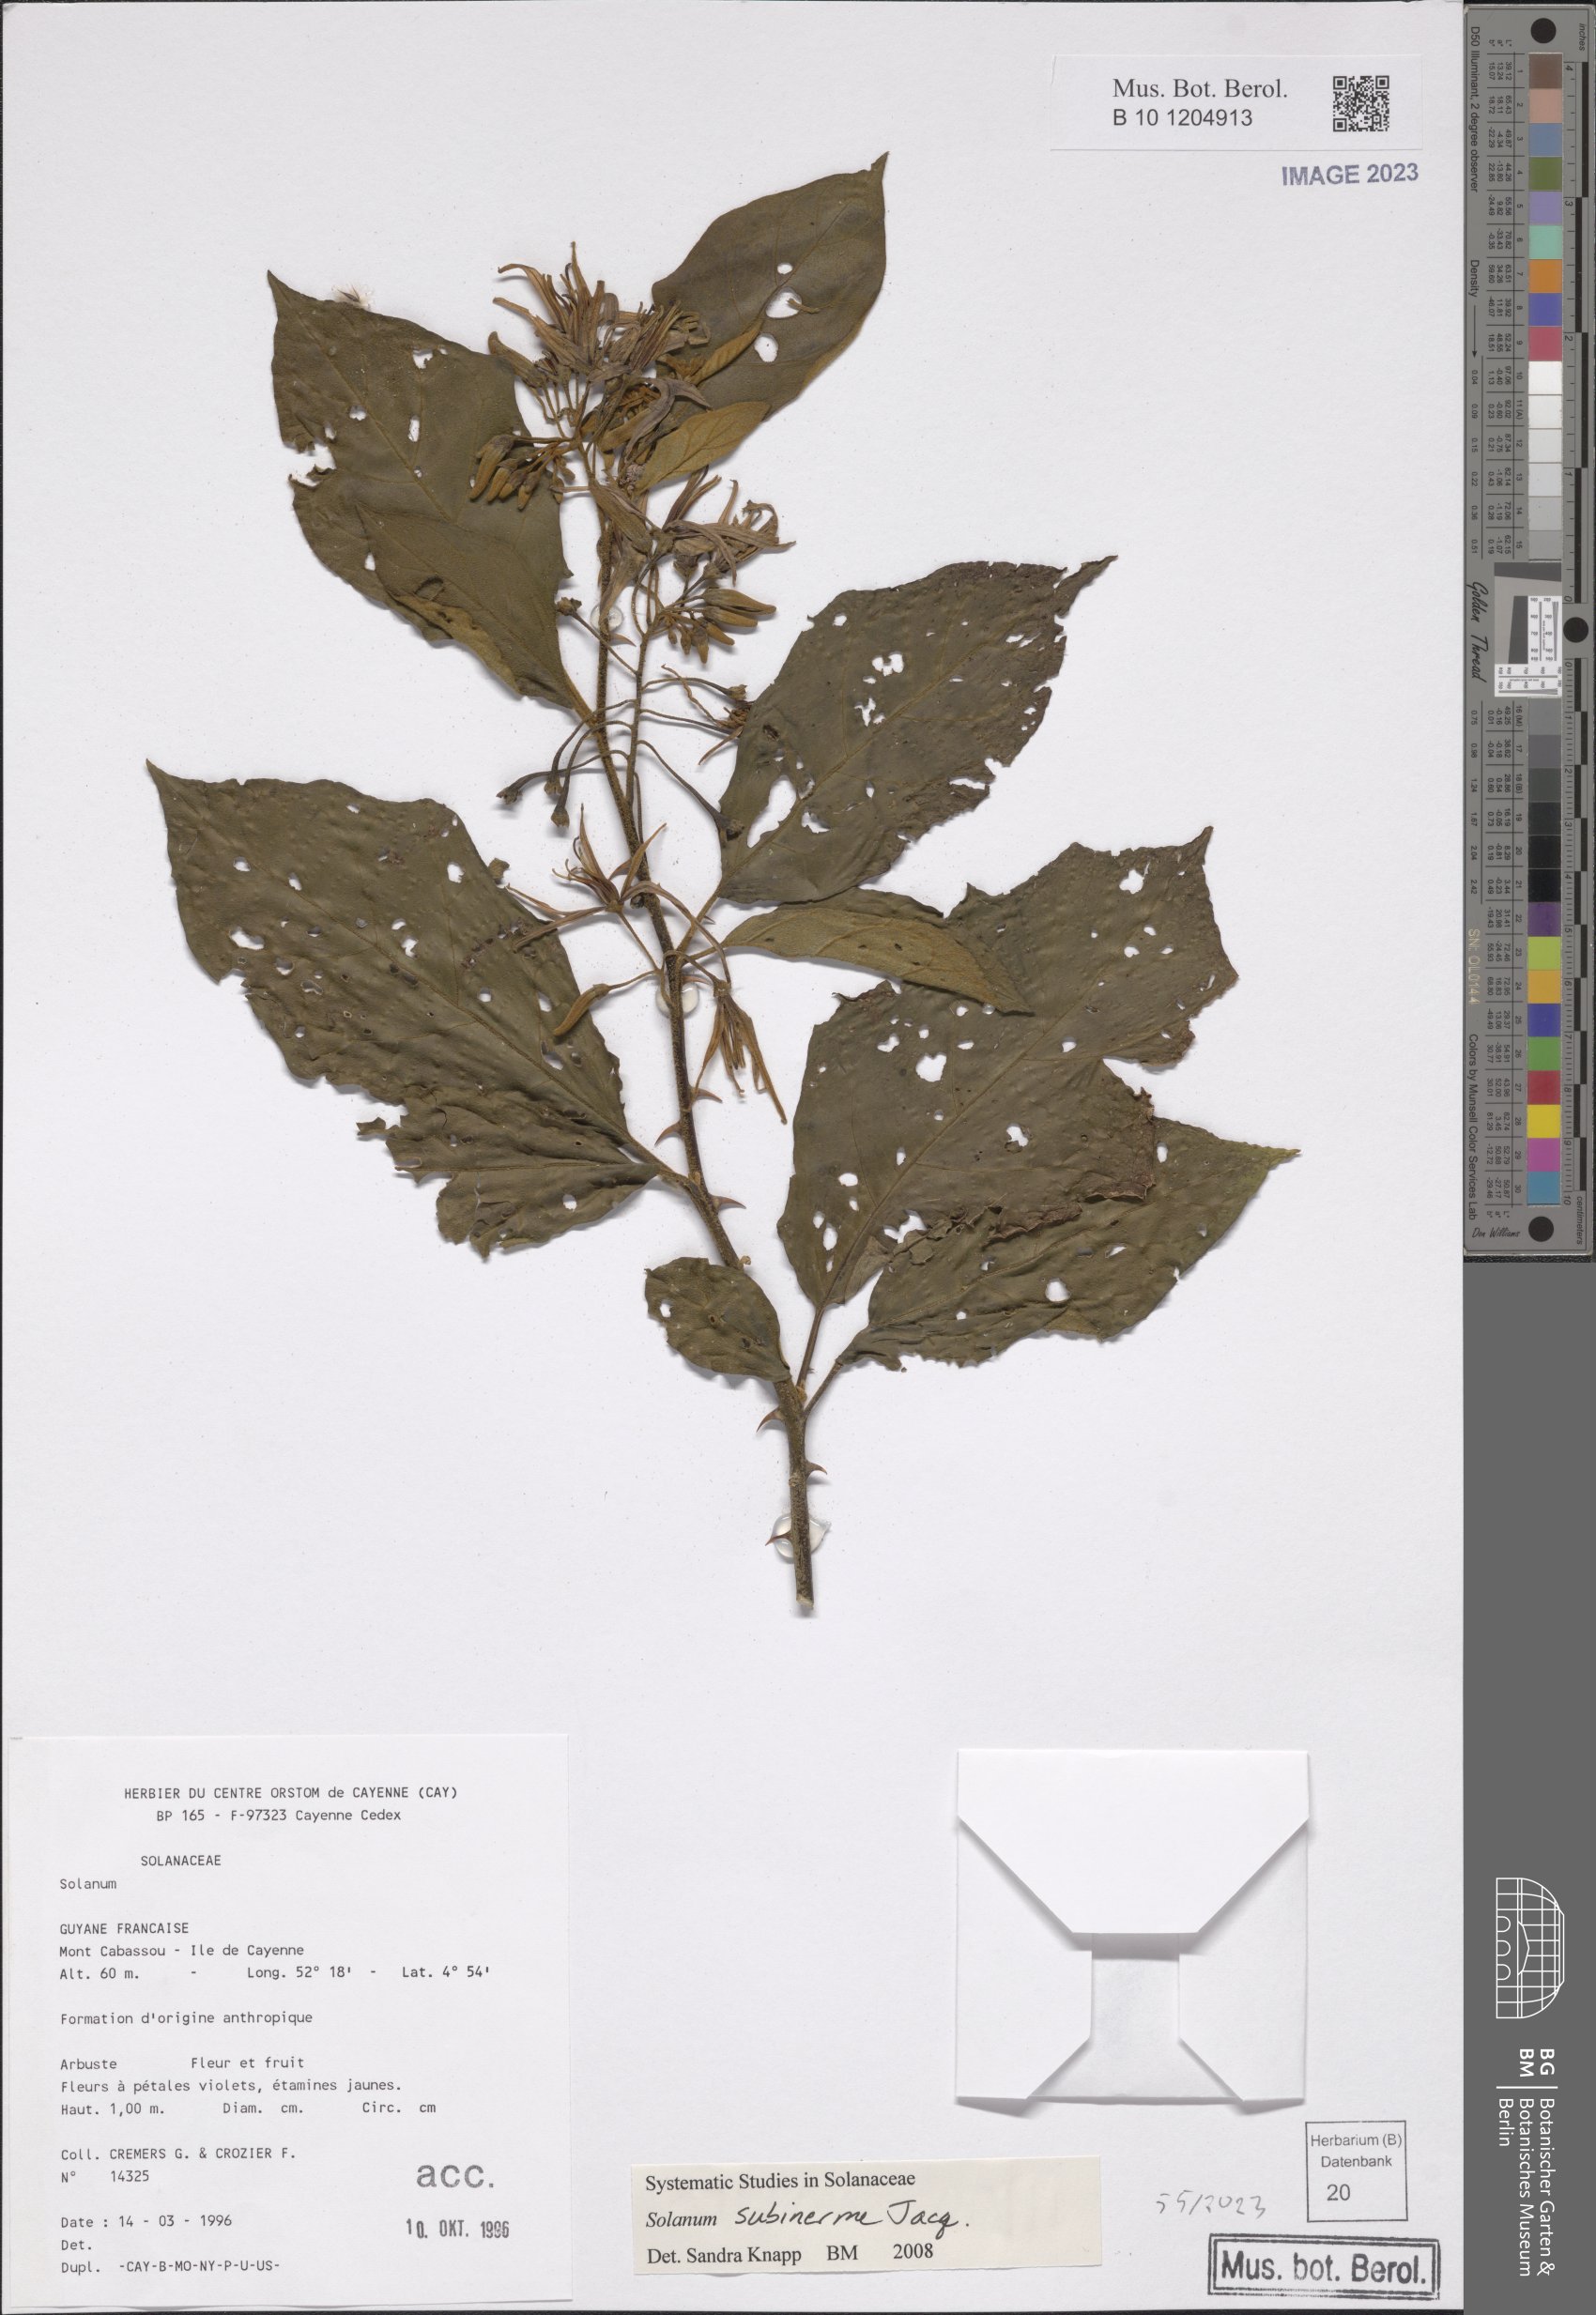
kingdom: Plantae
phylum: Tracheophyta
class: Magnoliopsida
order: Solanales
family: Solanaceae
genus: Solanum
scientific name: Solanum subinerme
